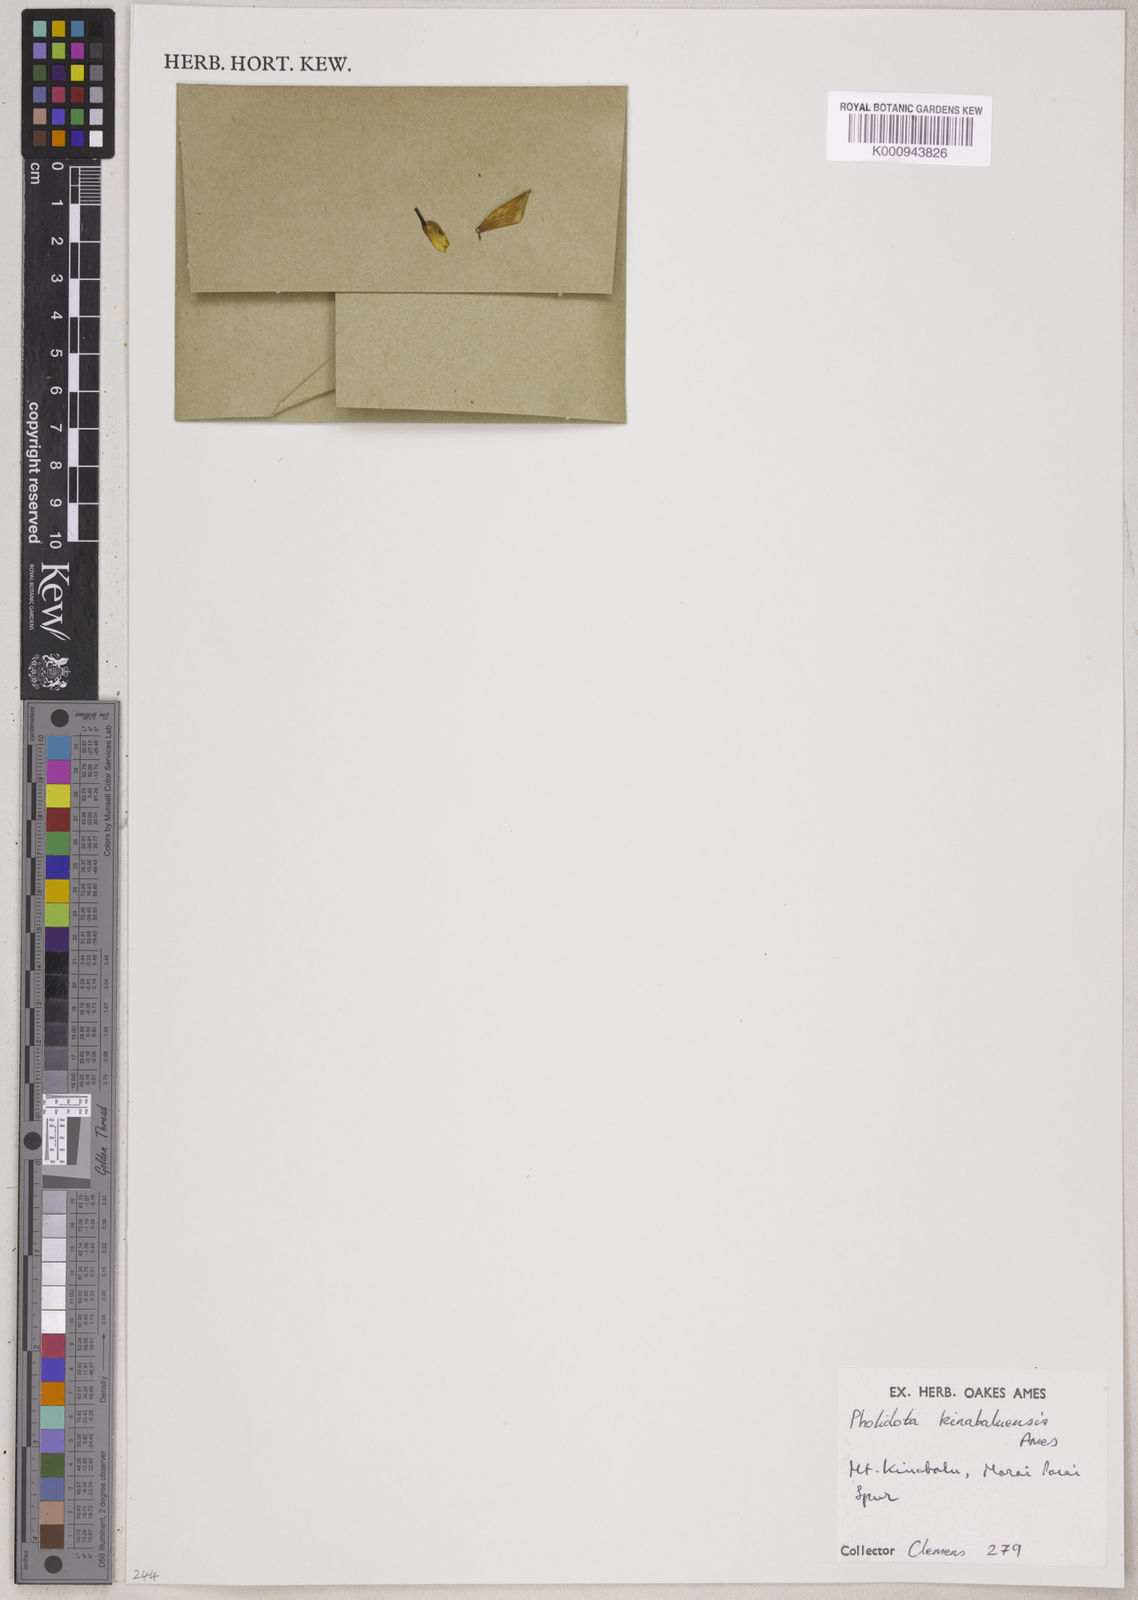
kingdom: Plantae
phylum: Tracheophyta
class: Liliopsida
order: Asparagales
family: Orchidaceae
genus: Coelogyne
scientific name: Coelogyne entomophobia
